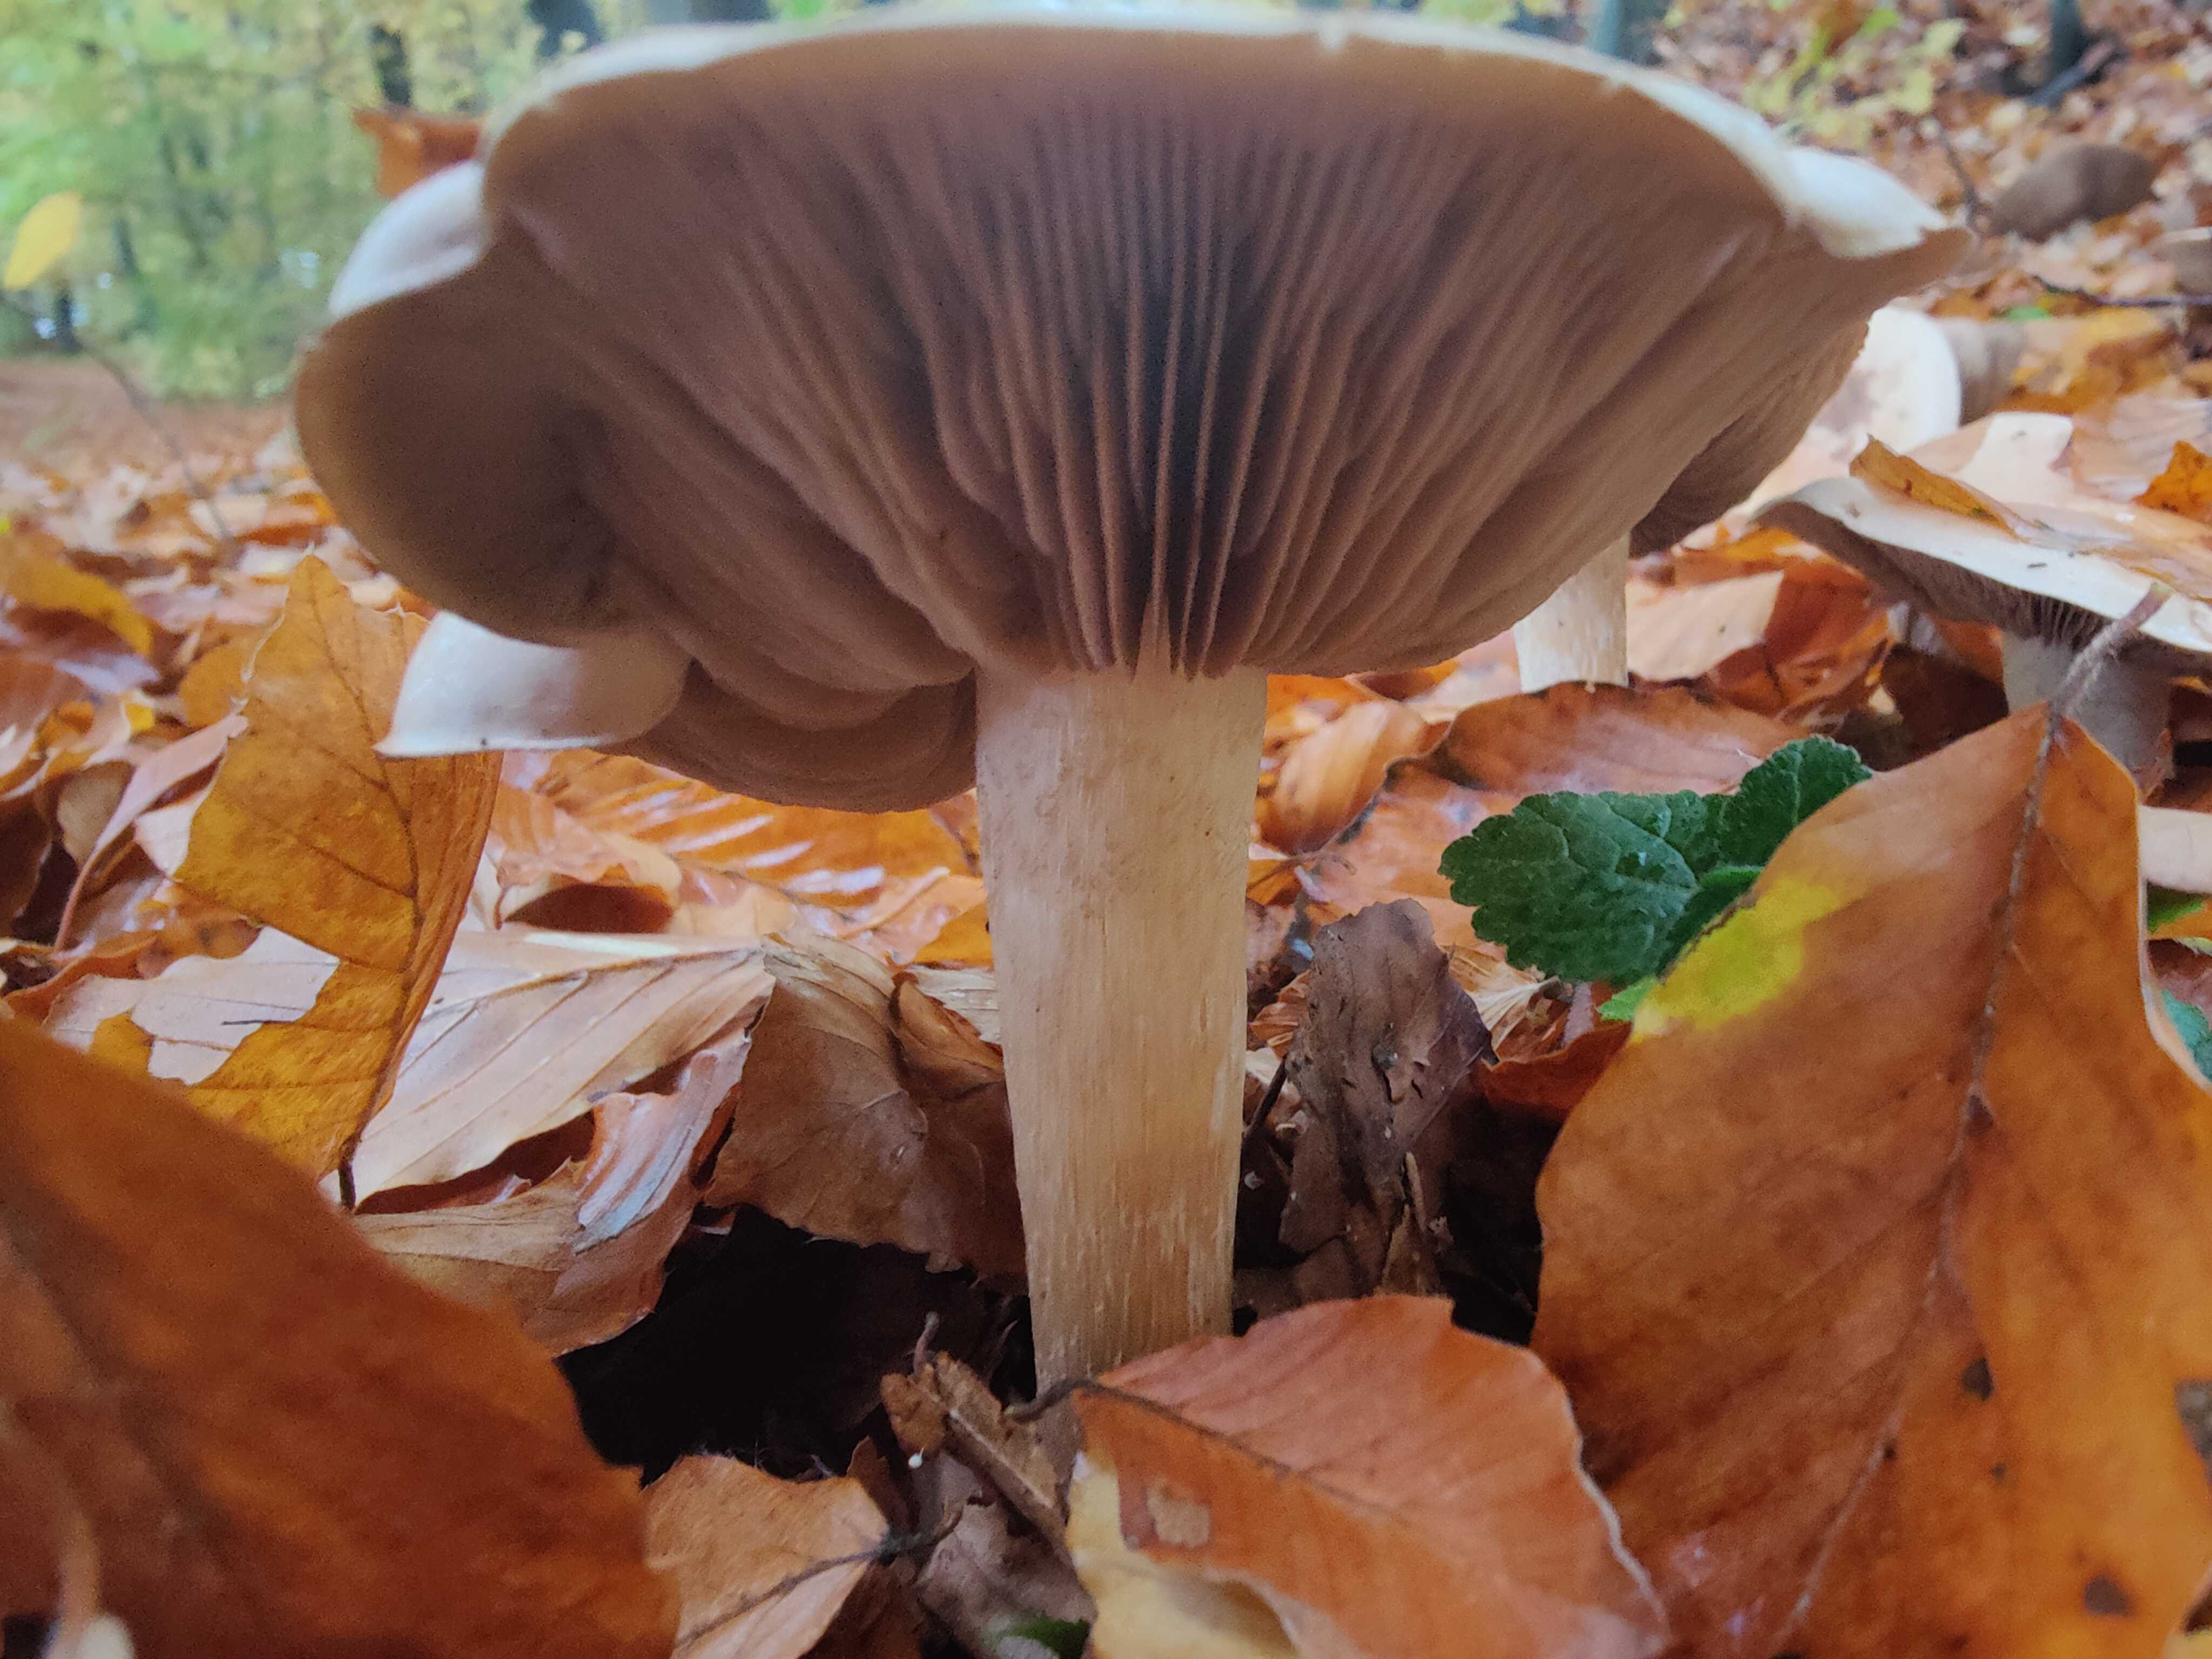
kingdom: Fungi
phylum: Basidiomycota
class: Agaricomycetes
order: Agaricales
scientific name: Agaricales
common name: champignonordenen
